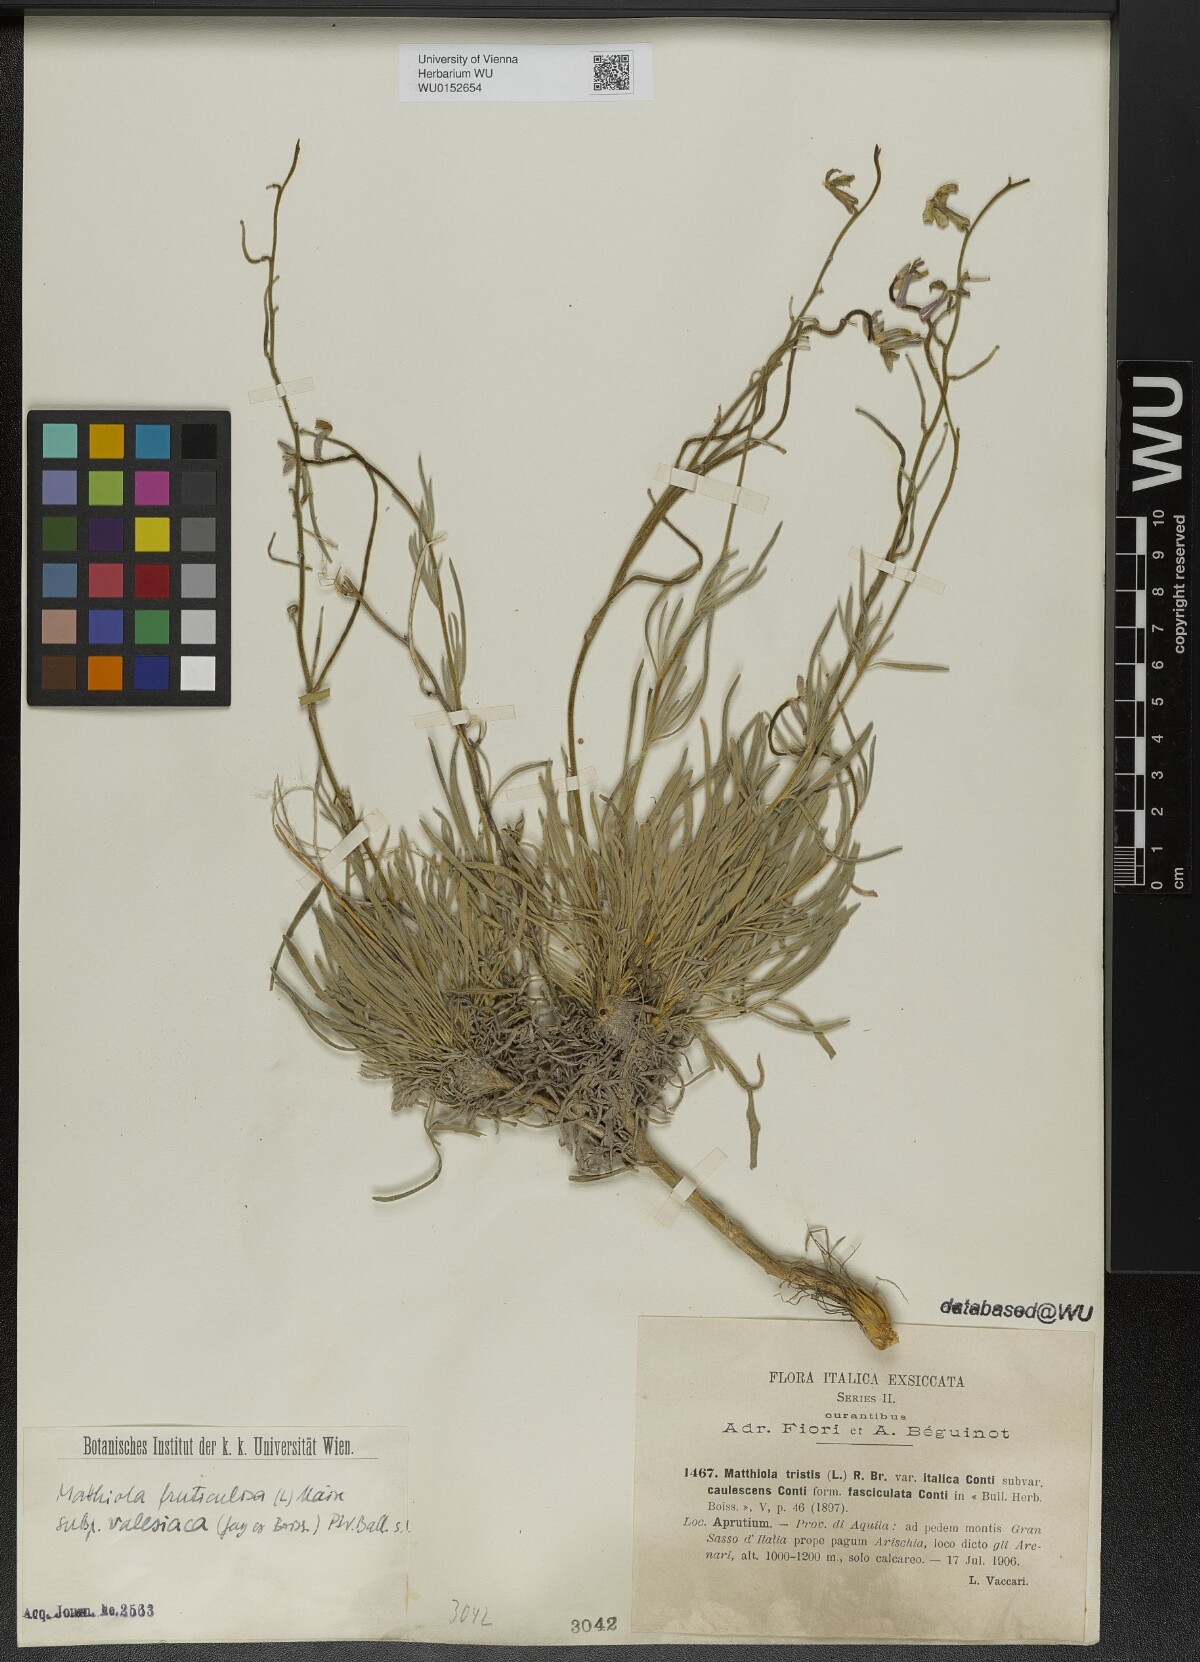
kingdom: Plantae
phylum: Tracheophyta
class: Magnoliopsida
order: Brassicales
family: Brassicaceae
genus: Matthiola
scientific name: Matthiola fruticulosa
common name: Sad stock
